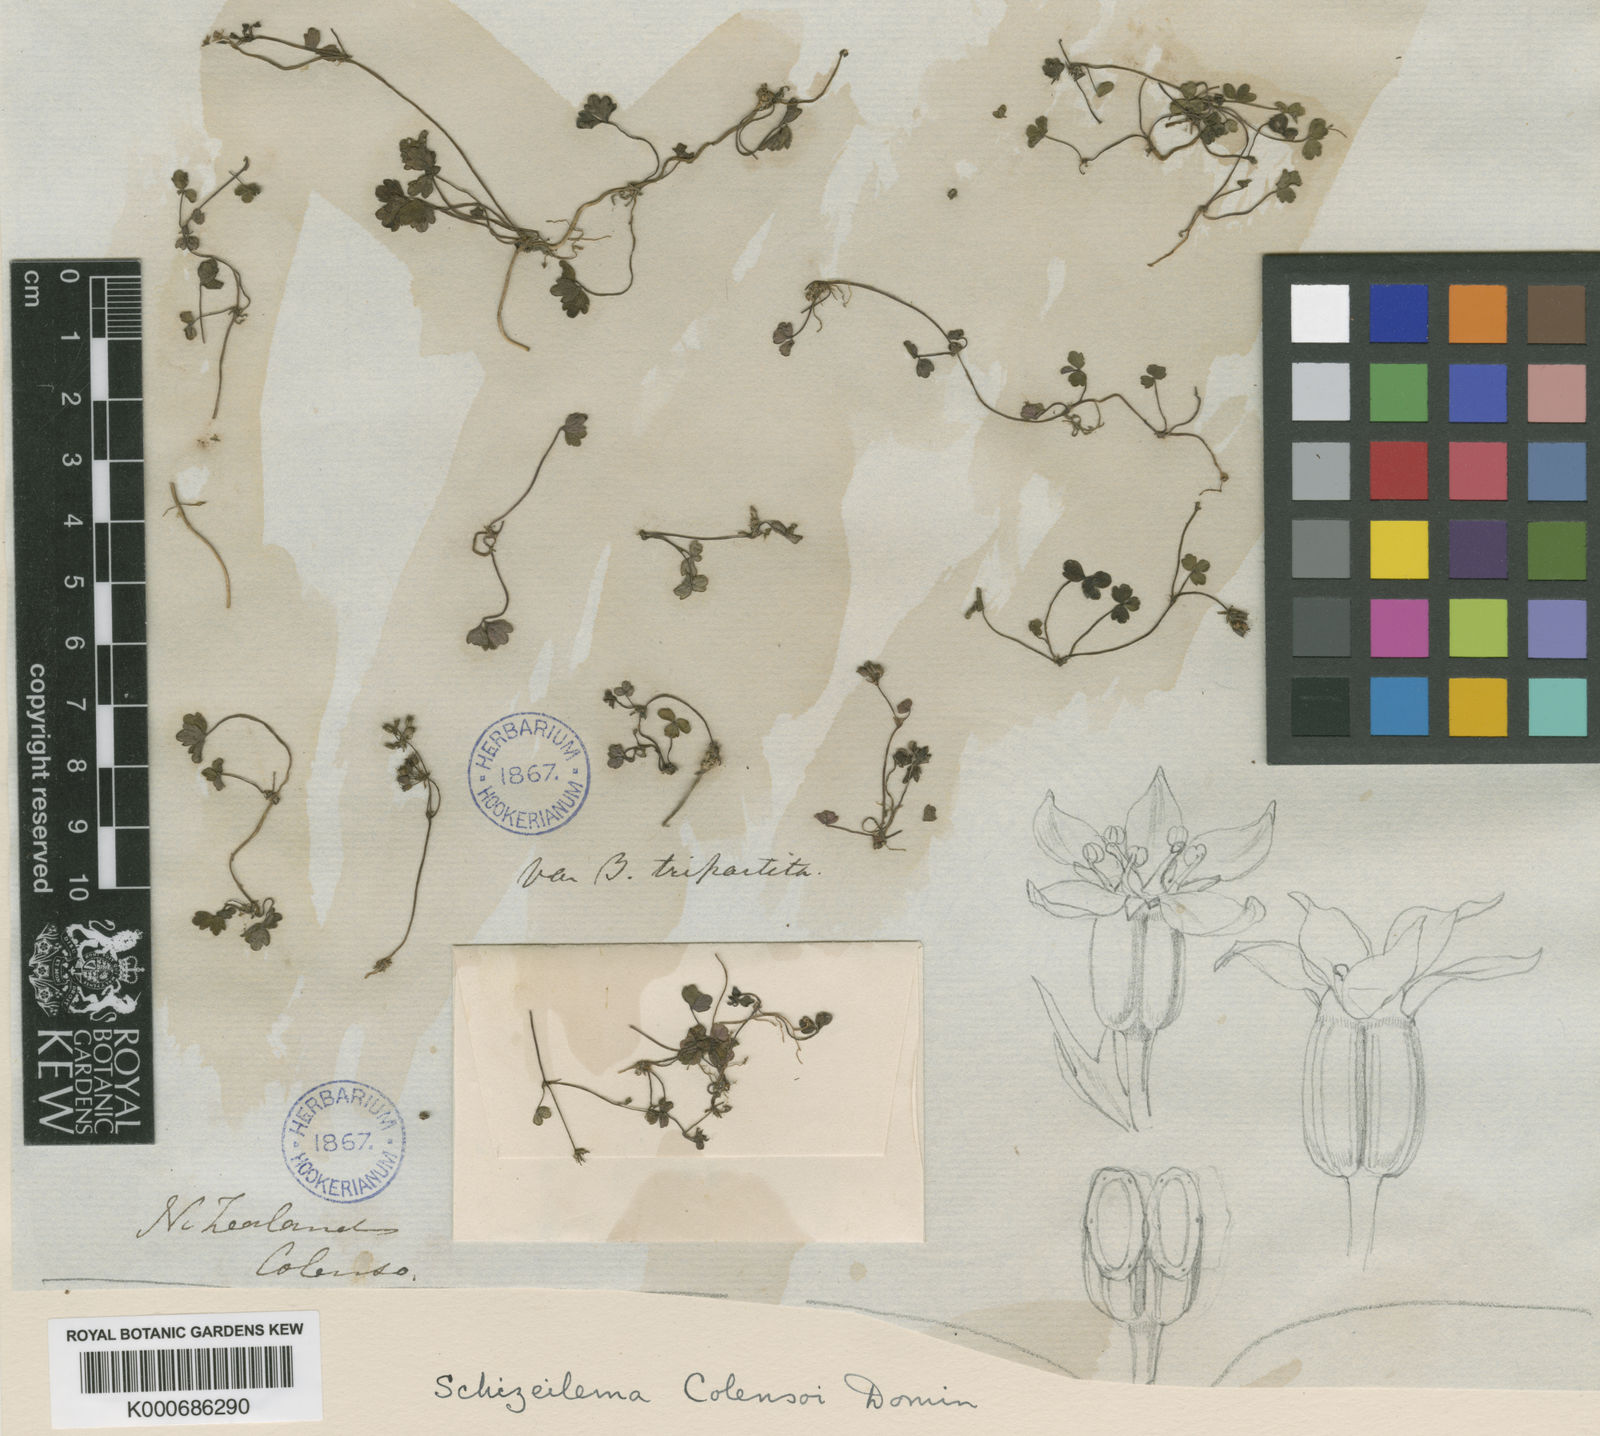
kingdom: Plantae
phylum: Tracheophyta
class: Magnoliopsida
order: Apiales
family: Apiaceae
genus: Azorella
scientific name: Azorella colensoi
